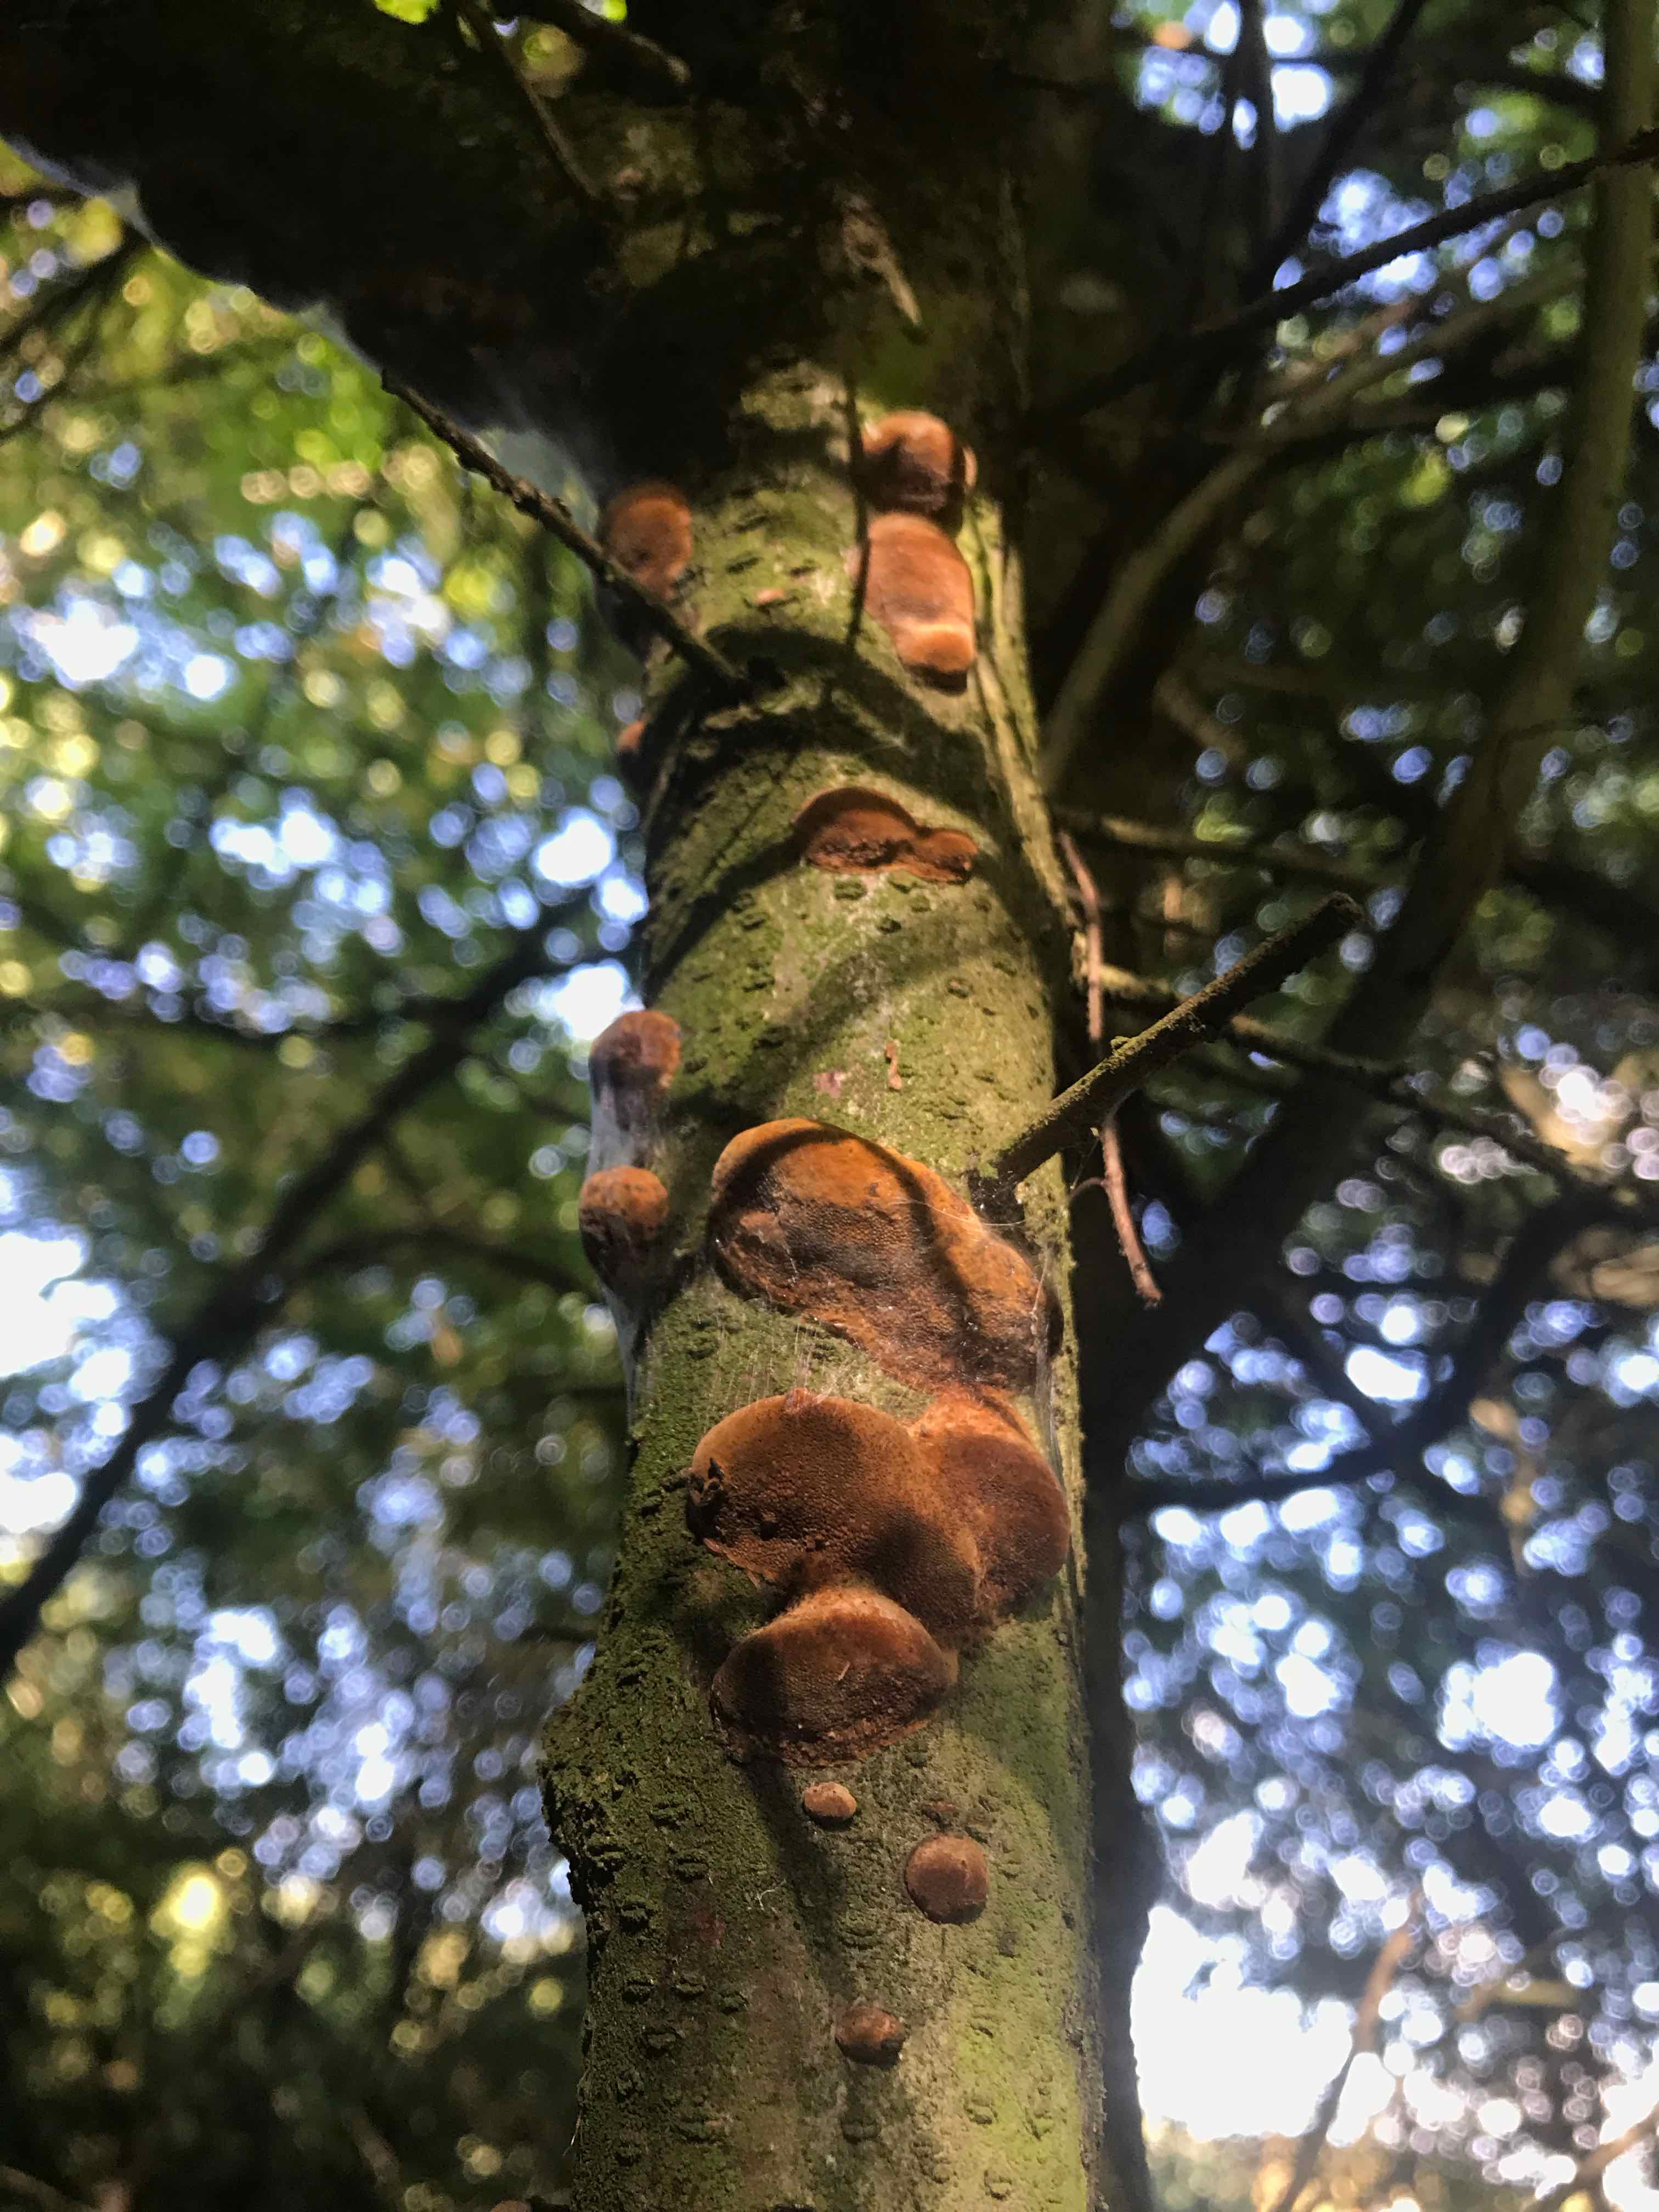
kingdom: Fungi
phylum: Basidiomycota
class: Agaricomycetes
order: Hymenochaetales
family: Hymenochaetaceae
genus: Phellinus
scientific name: Phellinus pomaceus
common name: blomme-ildporesvamp
